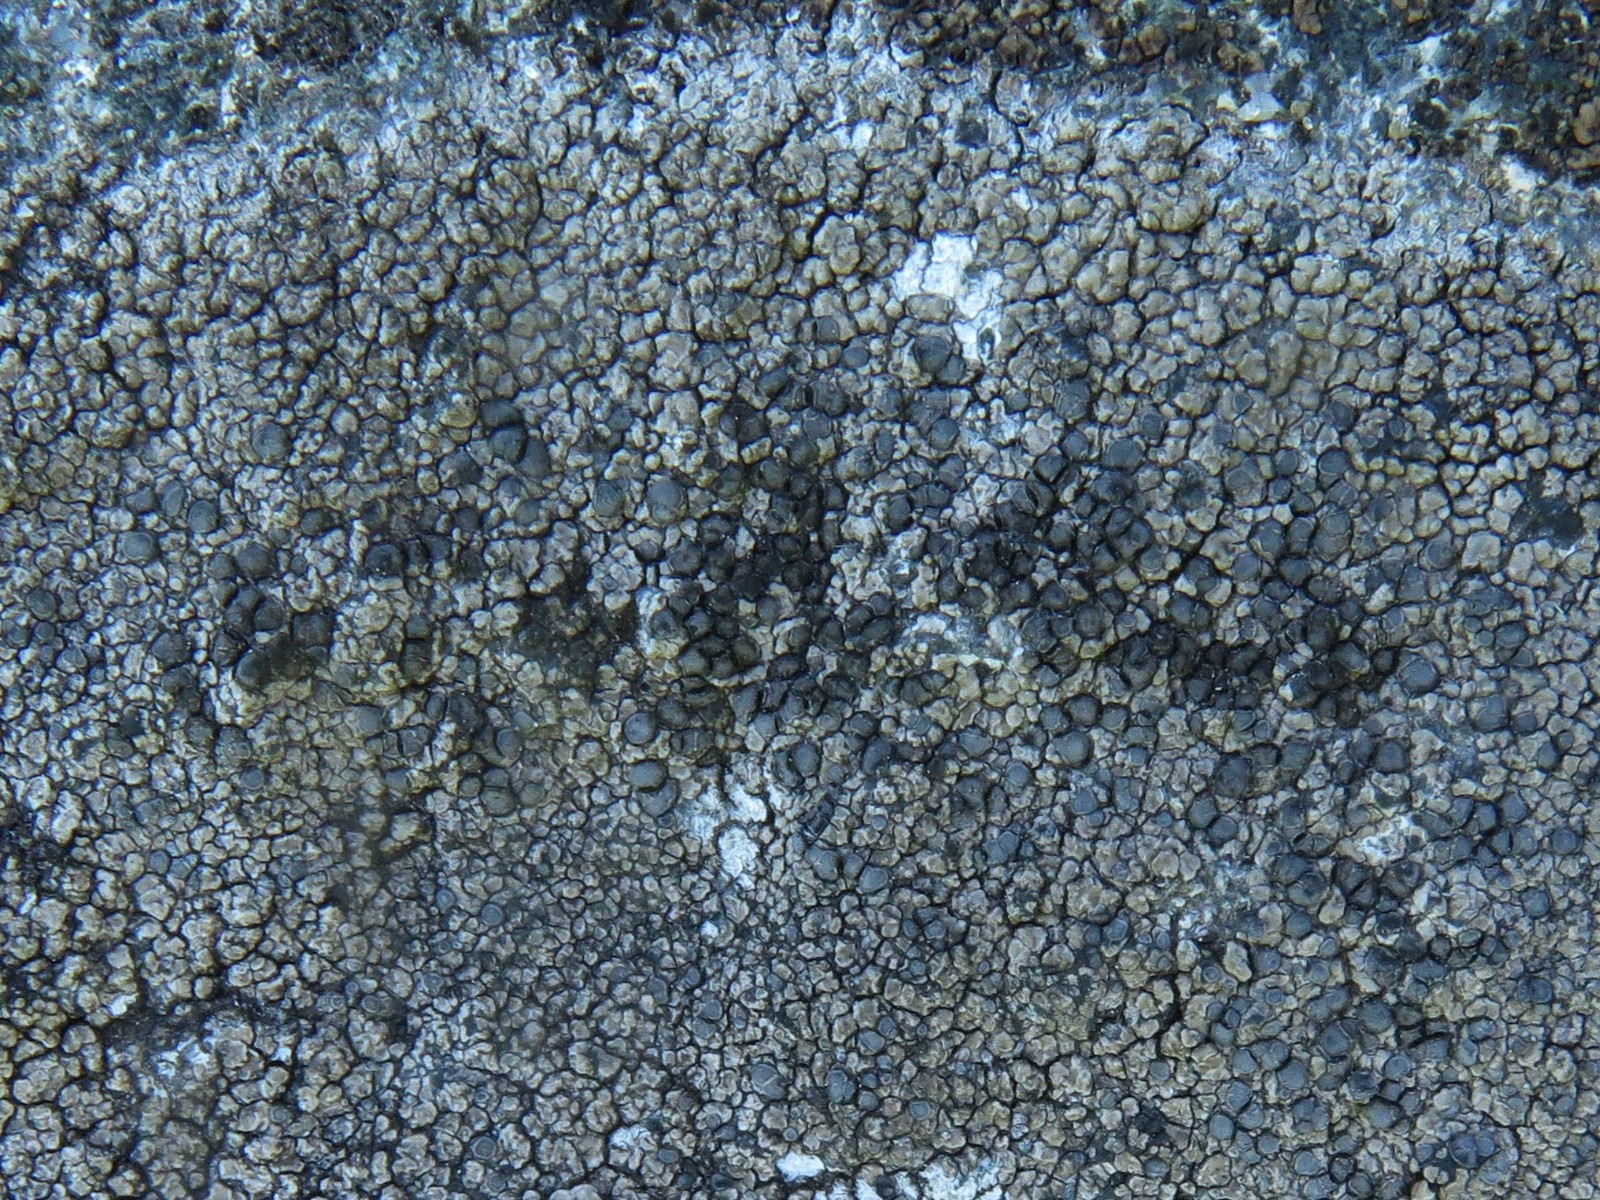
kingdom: Fungi
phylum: Ascomycota
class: Lecanoromycetes
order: Lecideales
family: Lecideaceae
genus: Lecidea
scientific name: Lecidea fuscoatra
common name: rudret skivelav
